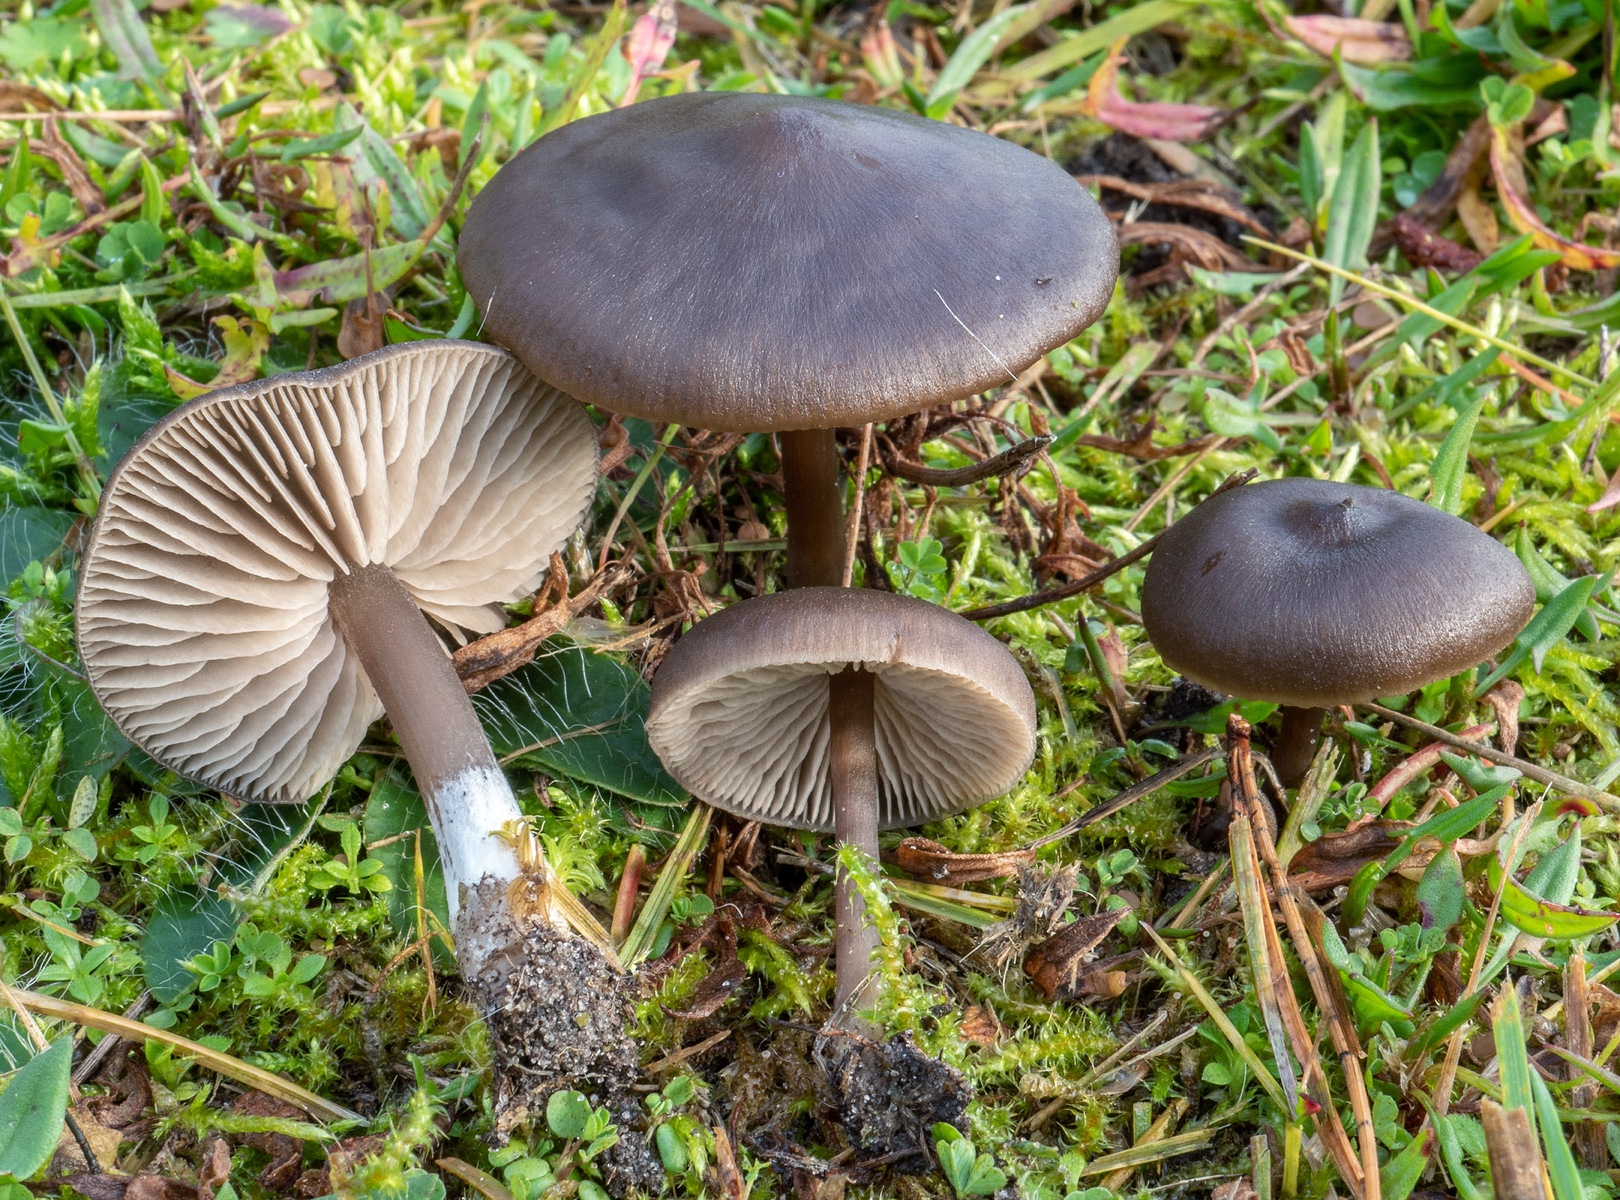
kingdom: Fungi
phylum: Basidiomycota
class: Agaricomycetes
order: Agaricales
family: Entolomataceae
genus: Entoloma
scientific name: Entoloma sericeum
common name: silkeglinsende rødblad
